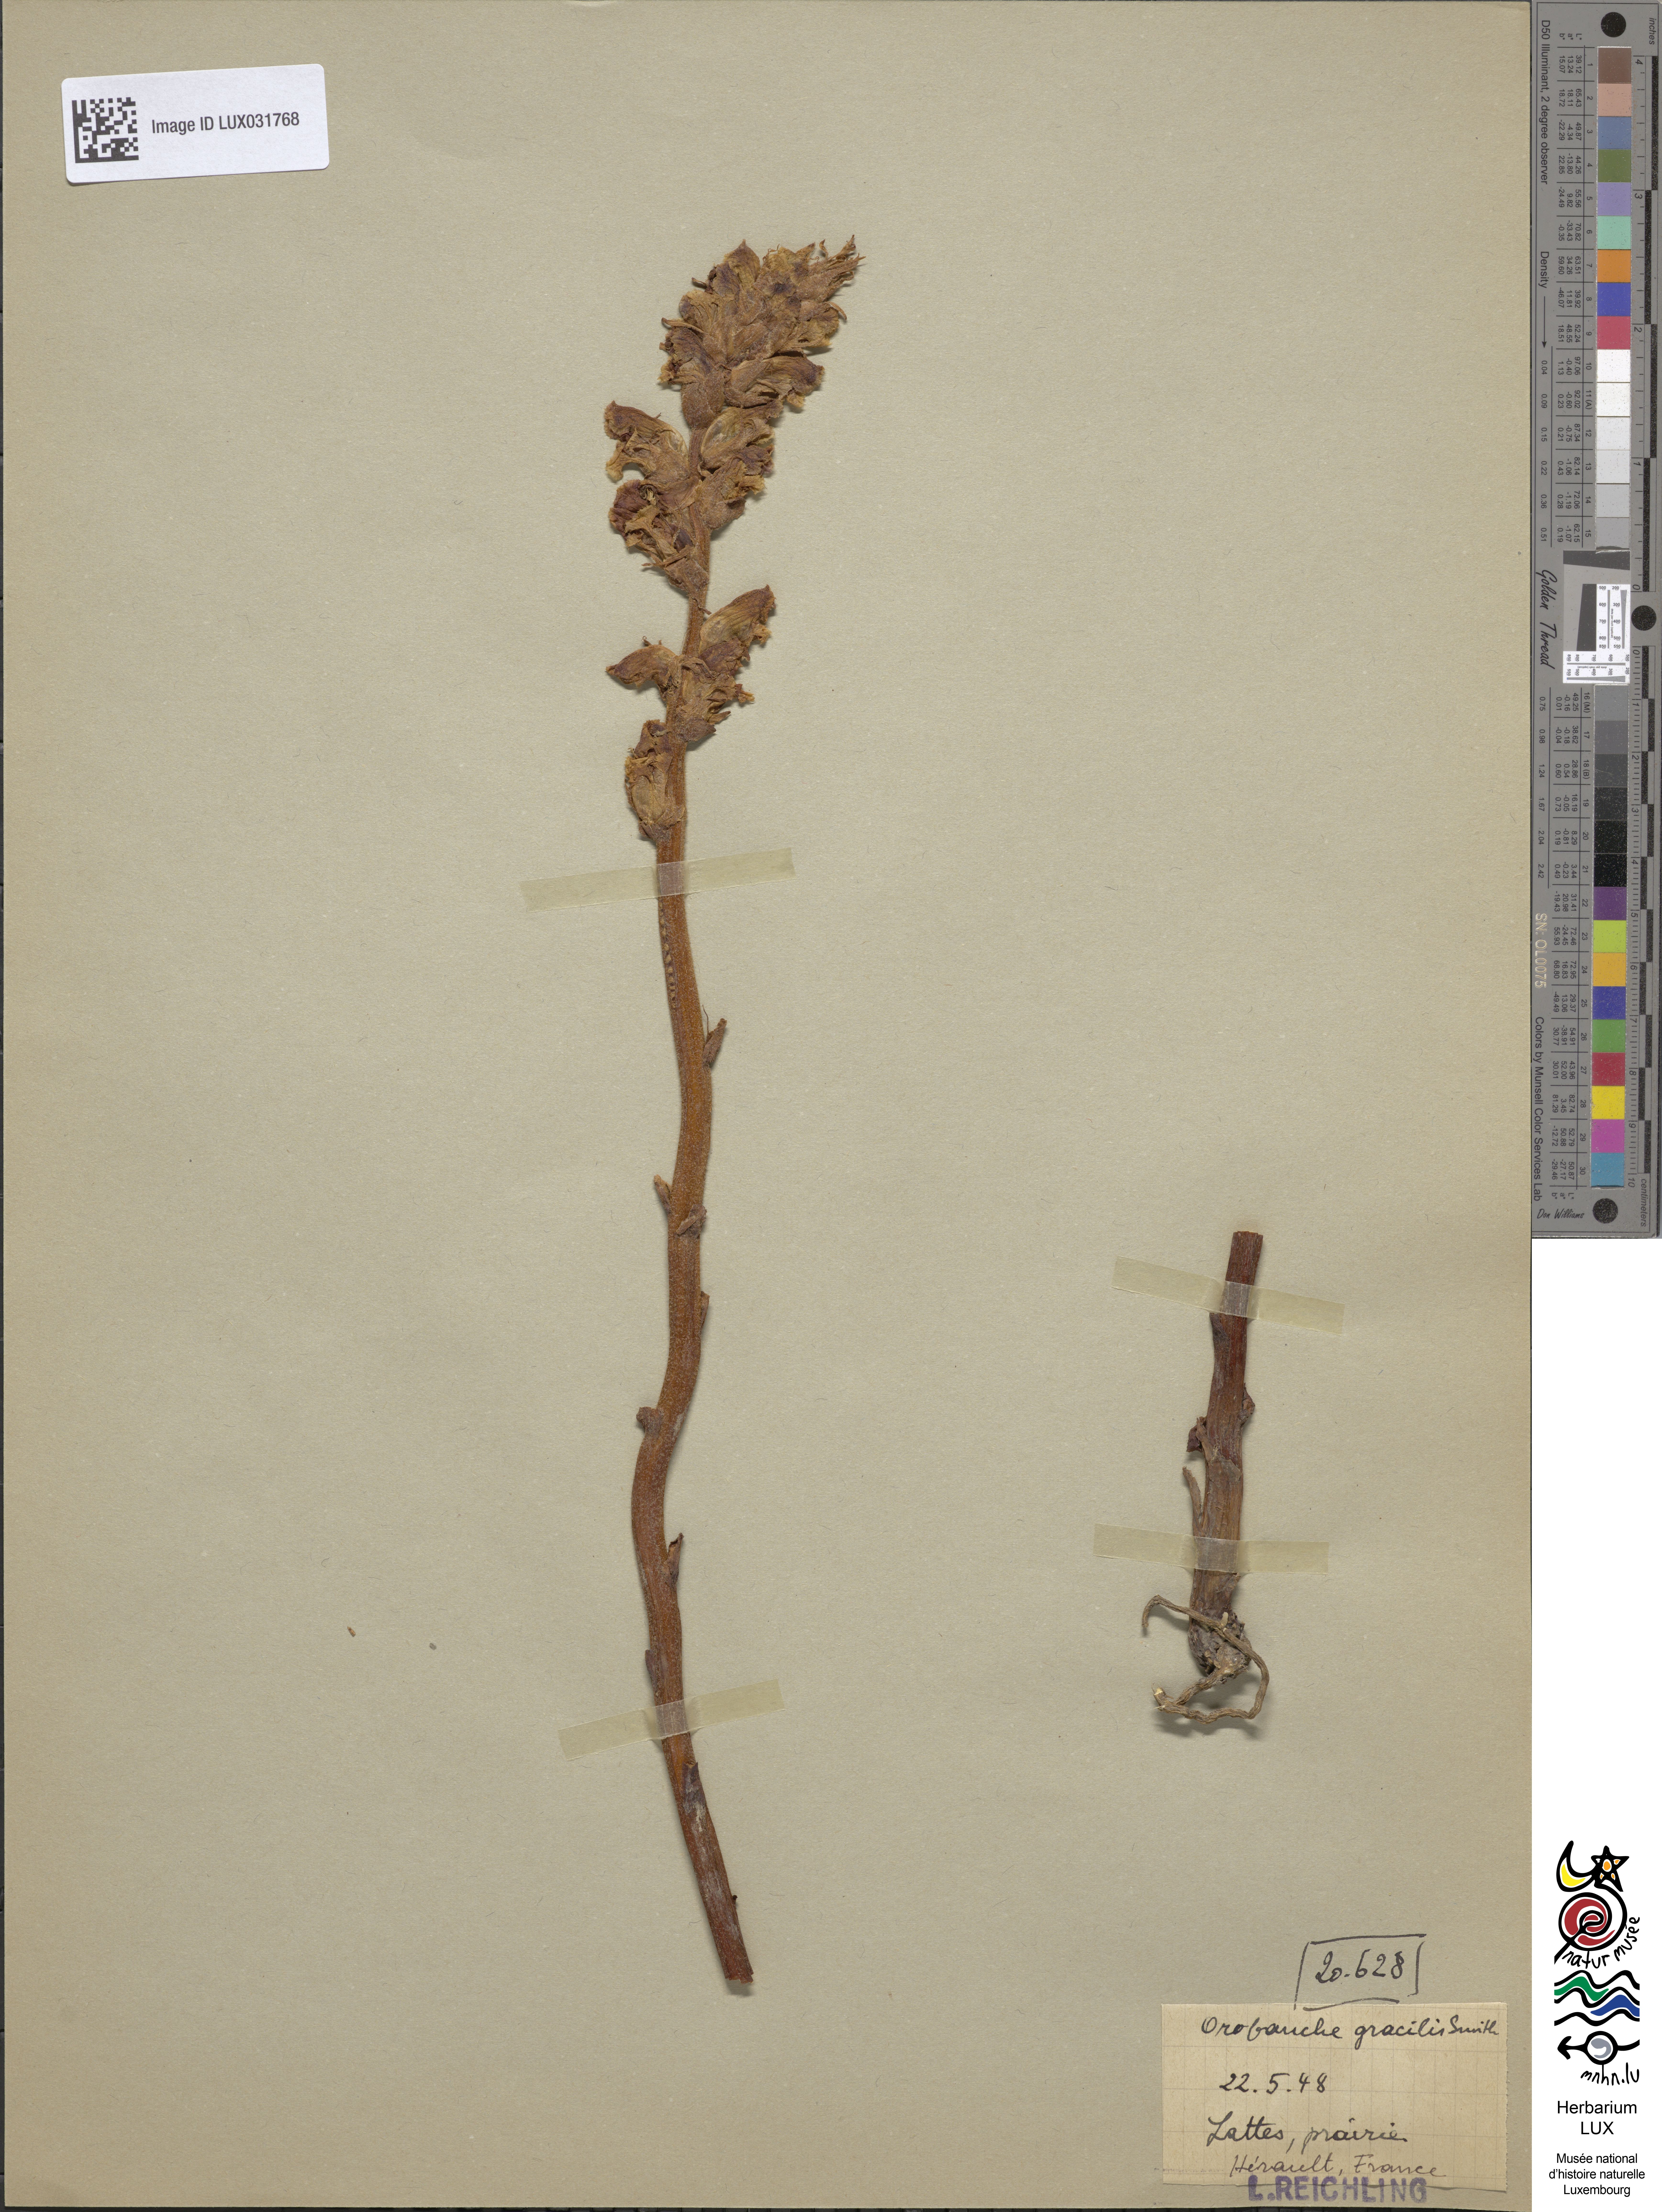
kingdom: Plantae
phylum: Tracheophyta
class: Magnoliopsida
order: Lamiales
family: Orobanchaceae
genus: Orobanche
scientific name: Orobanche gracilis
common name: Slender broomrape
